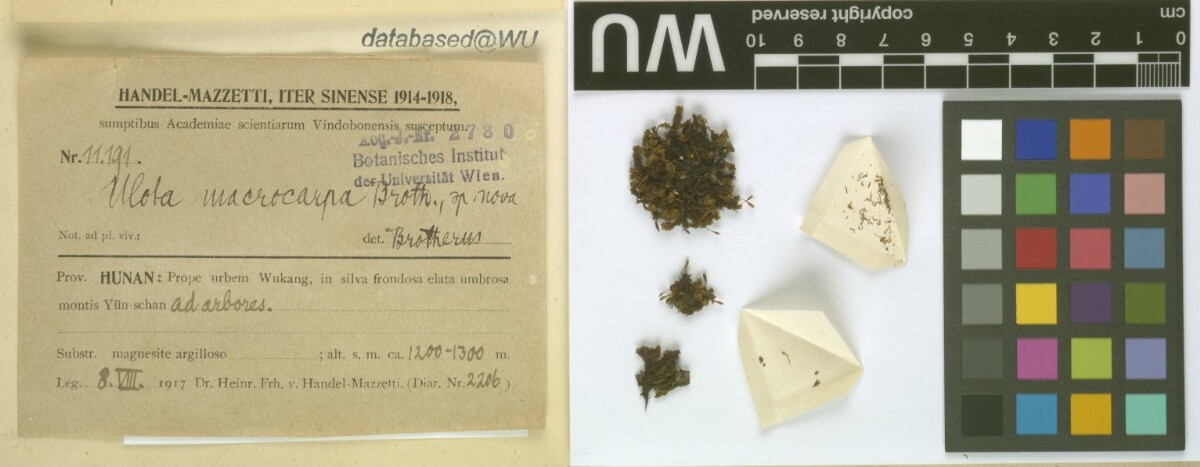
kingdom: Plantae
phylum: Bryophyta
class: Bryopsida
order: Orthotrichales
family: Orthotrichaceae
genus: Ulota
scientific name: Ulota crispa
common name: Crisped pincushion moss
